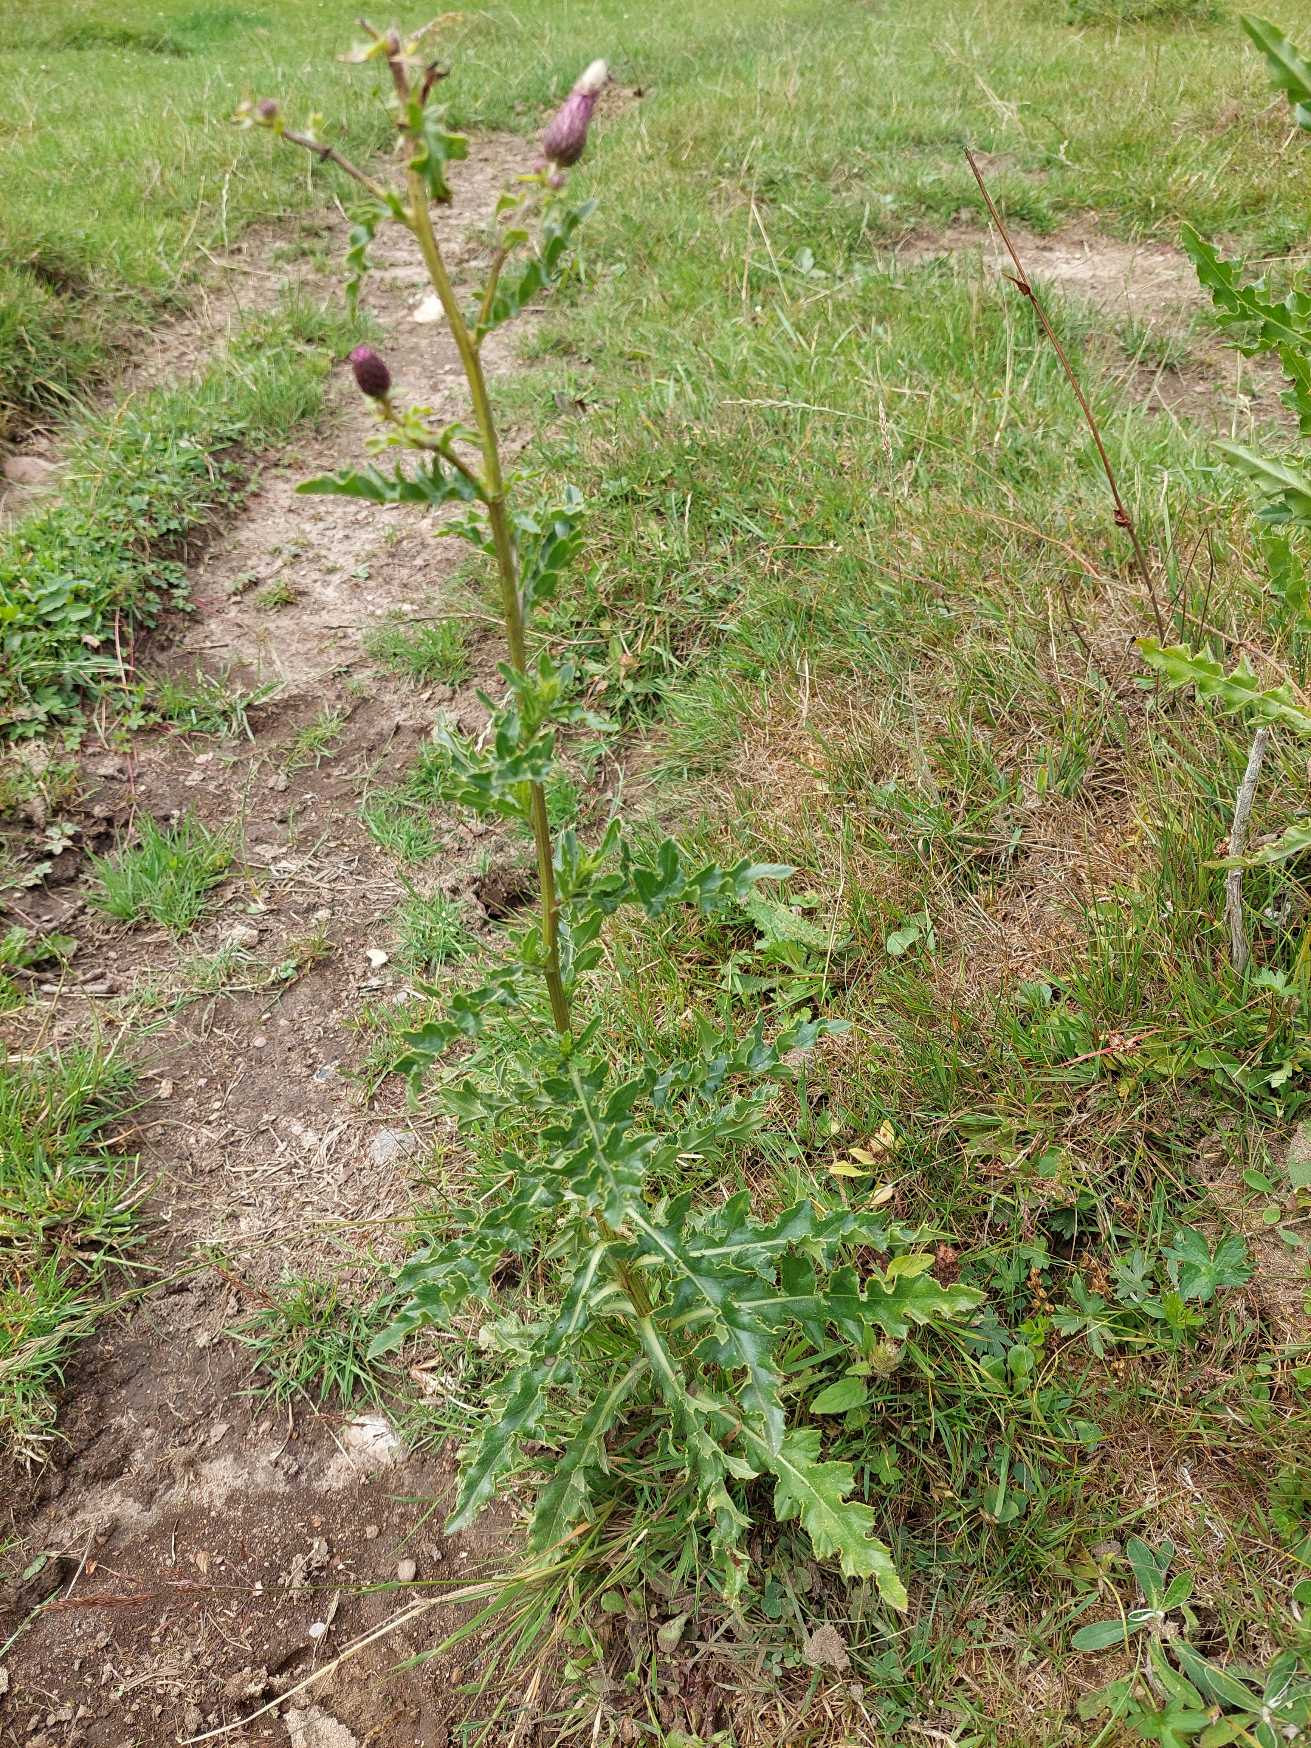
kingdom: Plantae
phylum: Tracheophyta
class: Magnoliopsida
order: Asterales
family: Asteraceae
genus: Cirsium
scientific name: Cirsium arvense
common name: Ager-tidsel
